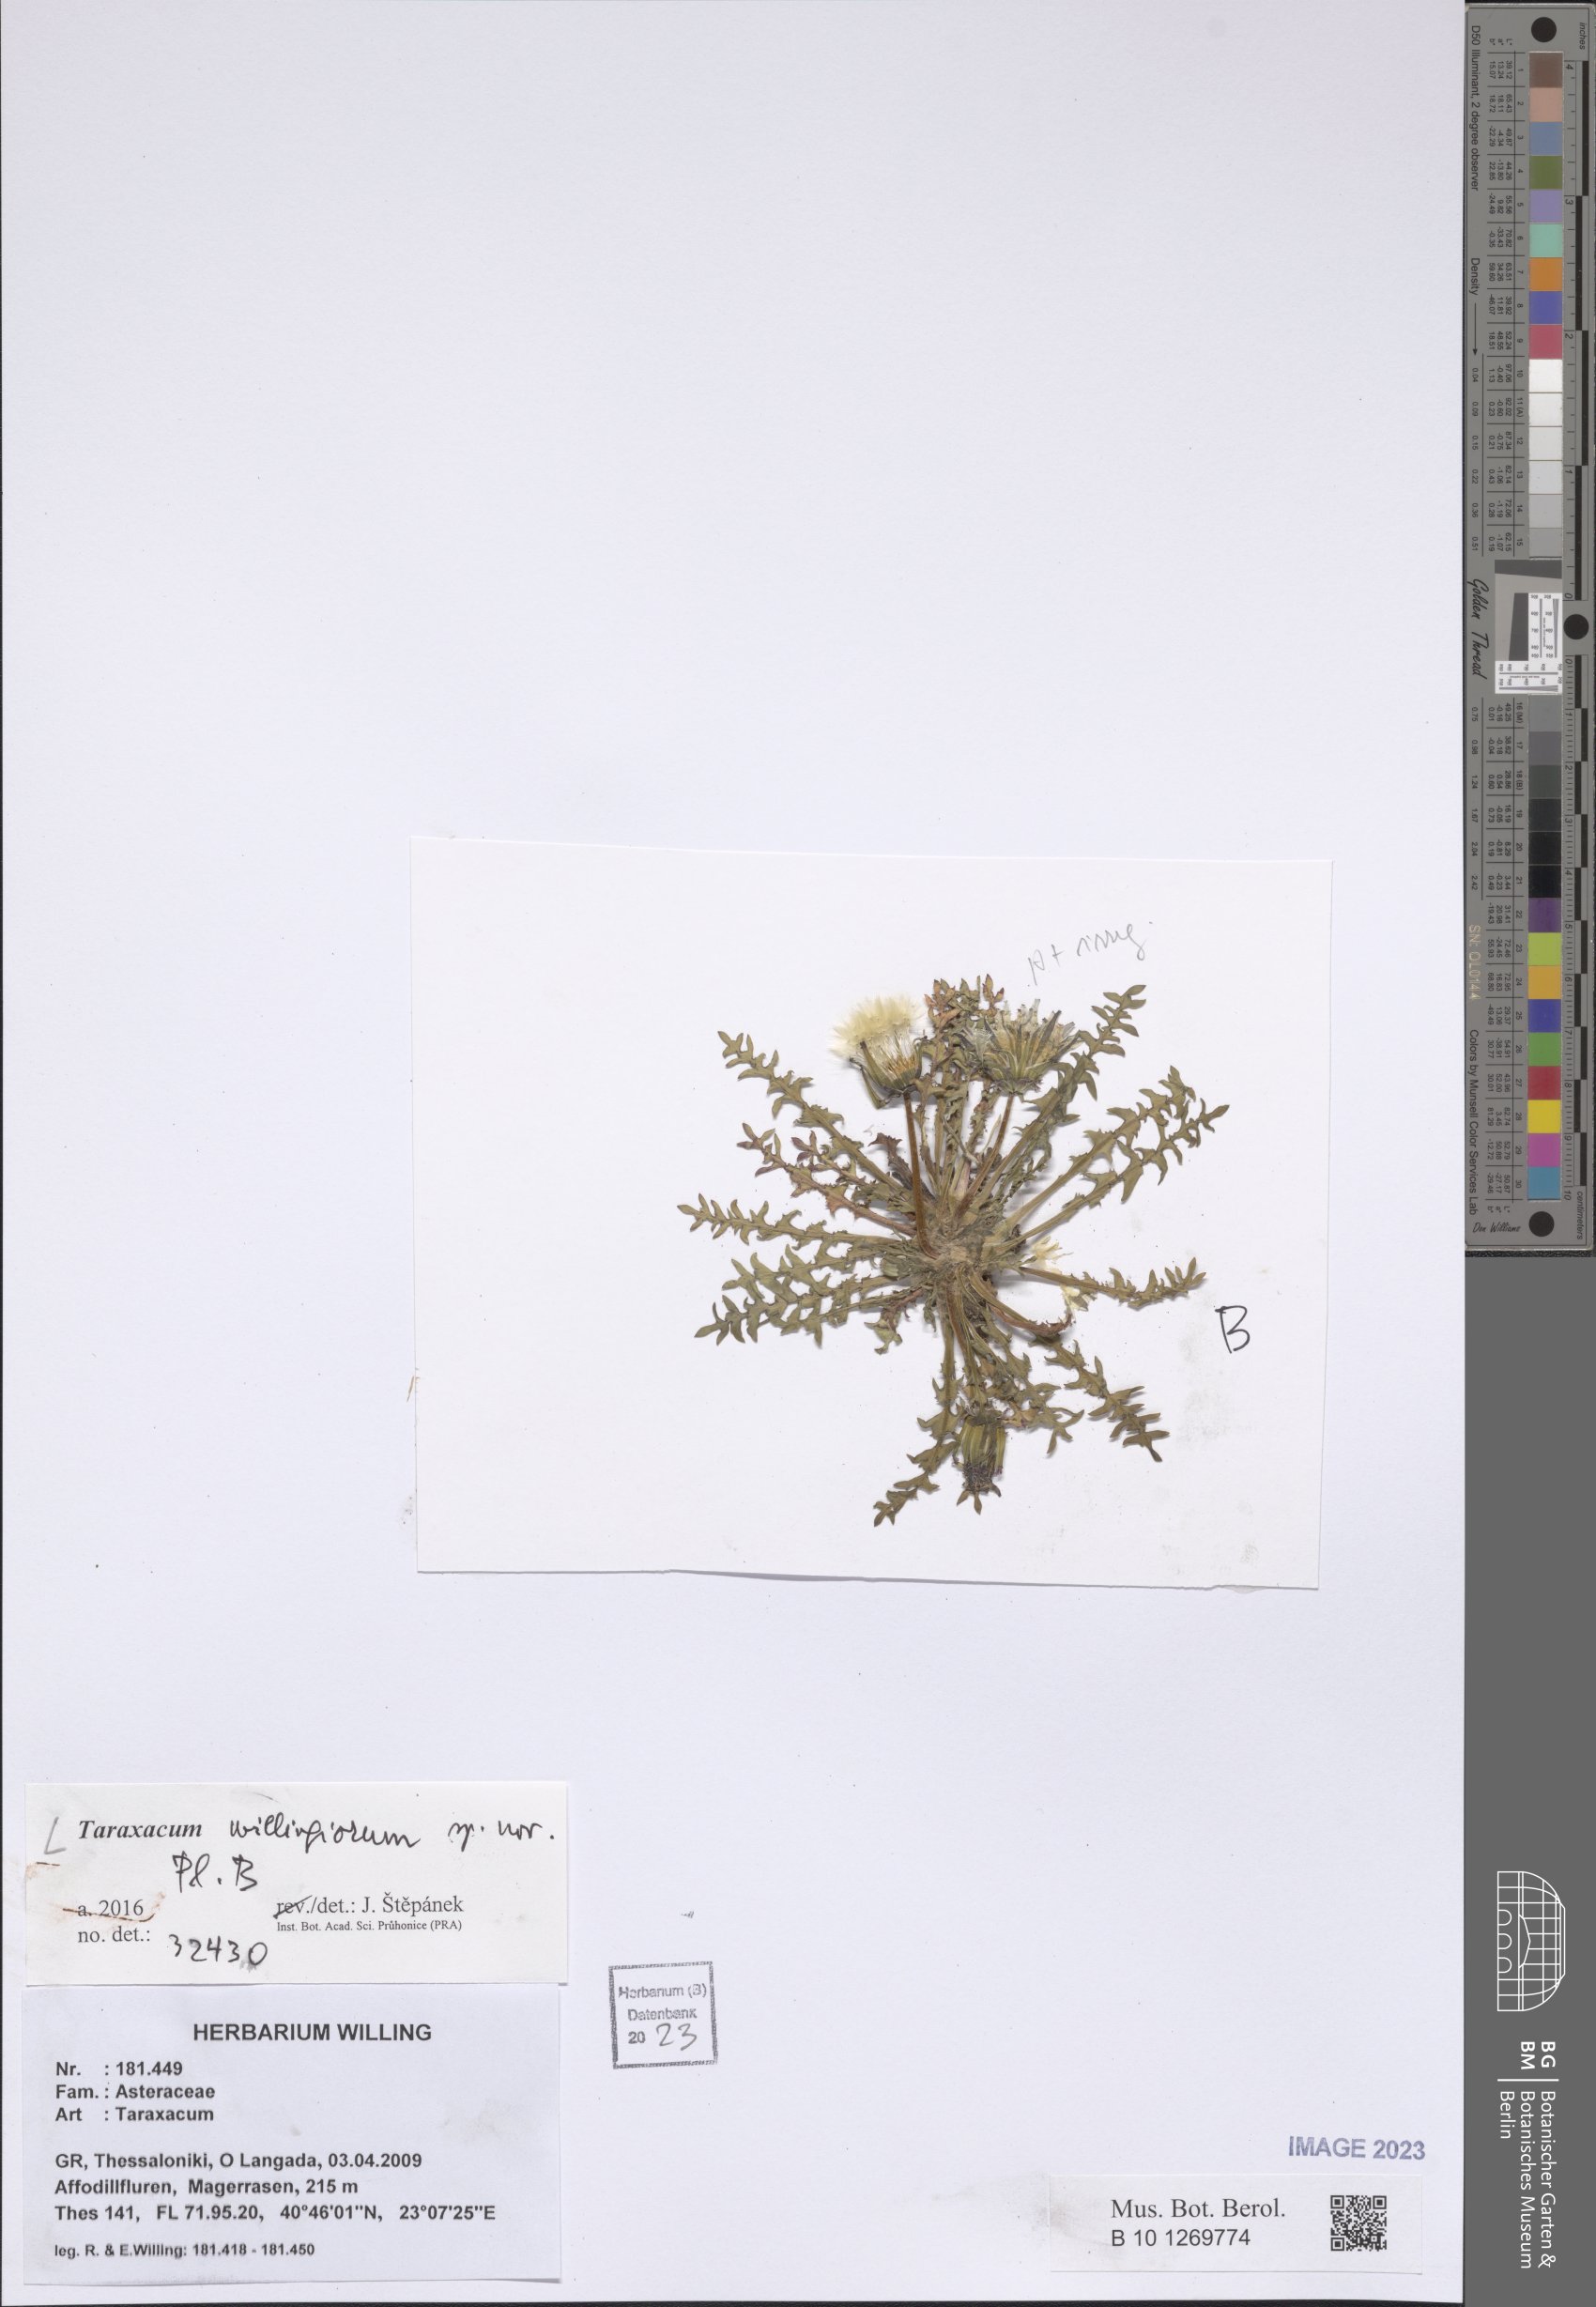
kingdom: Plantae
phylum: Tracheophyta
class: Magnoliopsida
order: Asterales
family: Asteraceae
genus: Taraxacum
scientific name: Taraxacum
